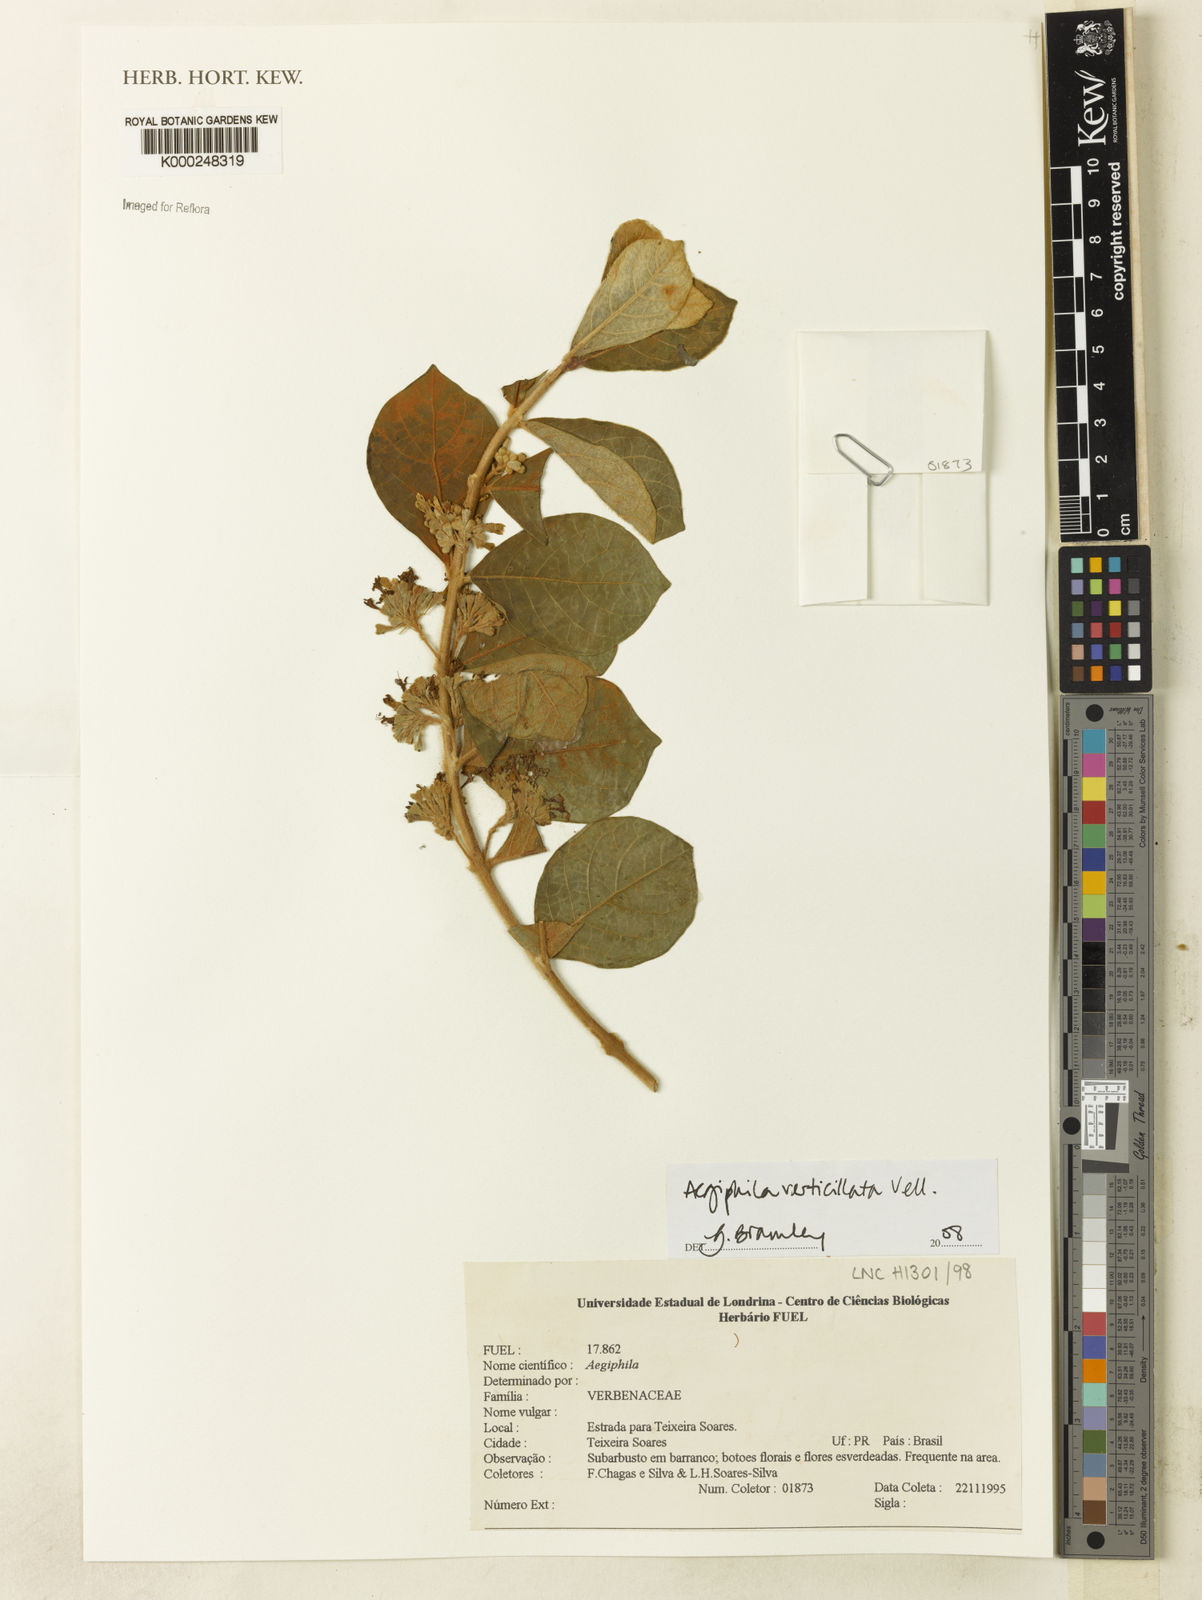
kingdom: Plantae
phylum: Tracheophyta
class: Magnoliopsida
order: Lamiales
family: Lamiaceae
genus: Aegiphila
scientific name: Aegiphila verticillata
